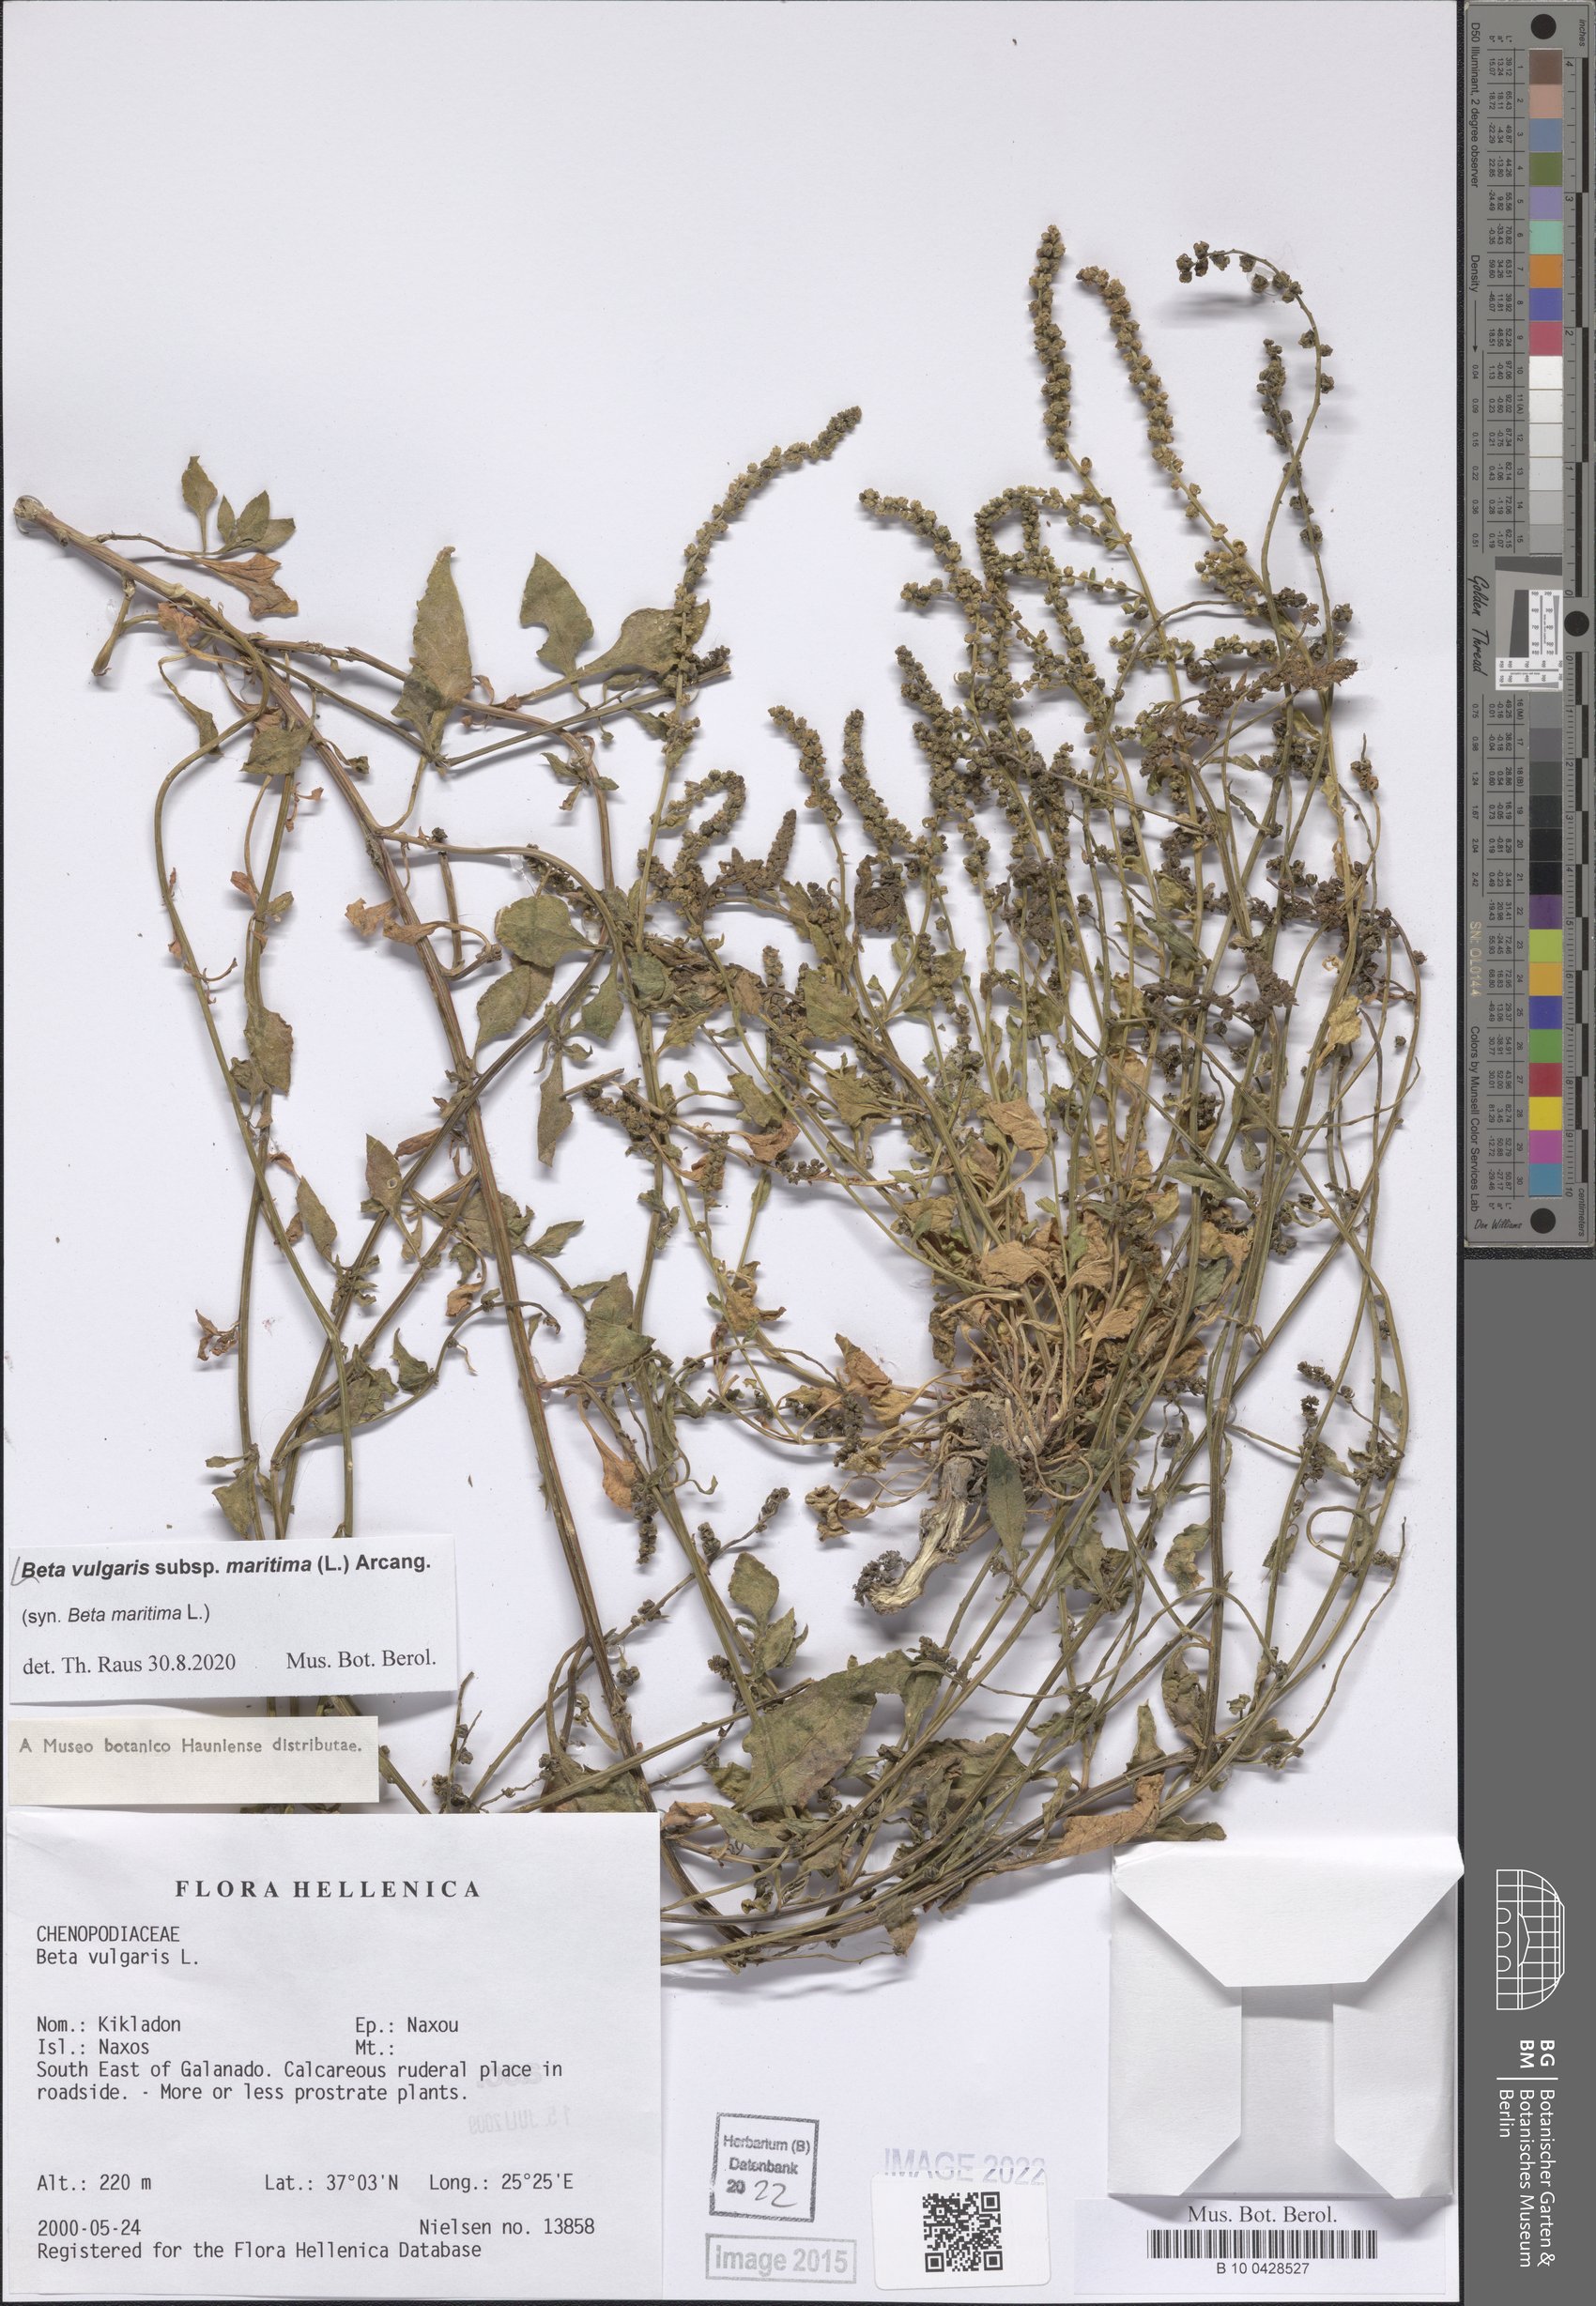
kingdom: Plantae
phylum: Tracheophyta
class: Magnoliopsida
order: Caryophyllales
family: Amaranthaceae
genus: Beta
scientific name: Beta maritima
